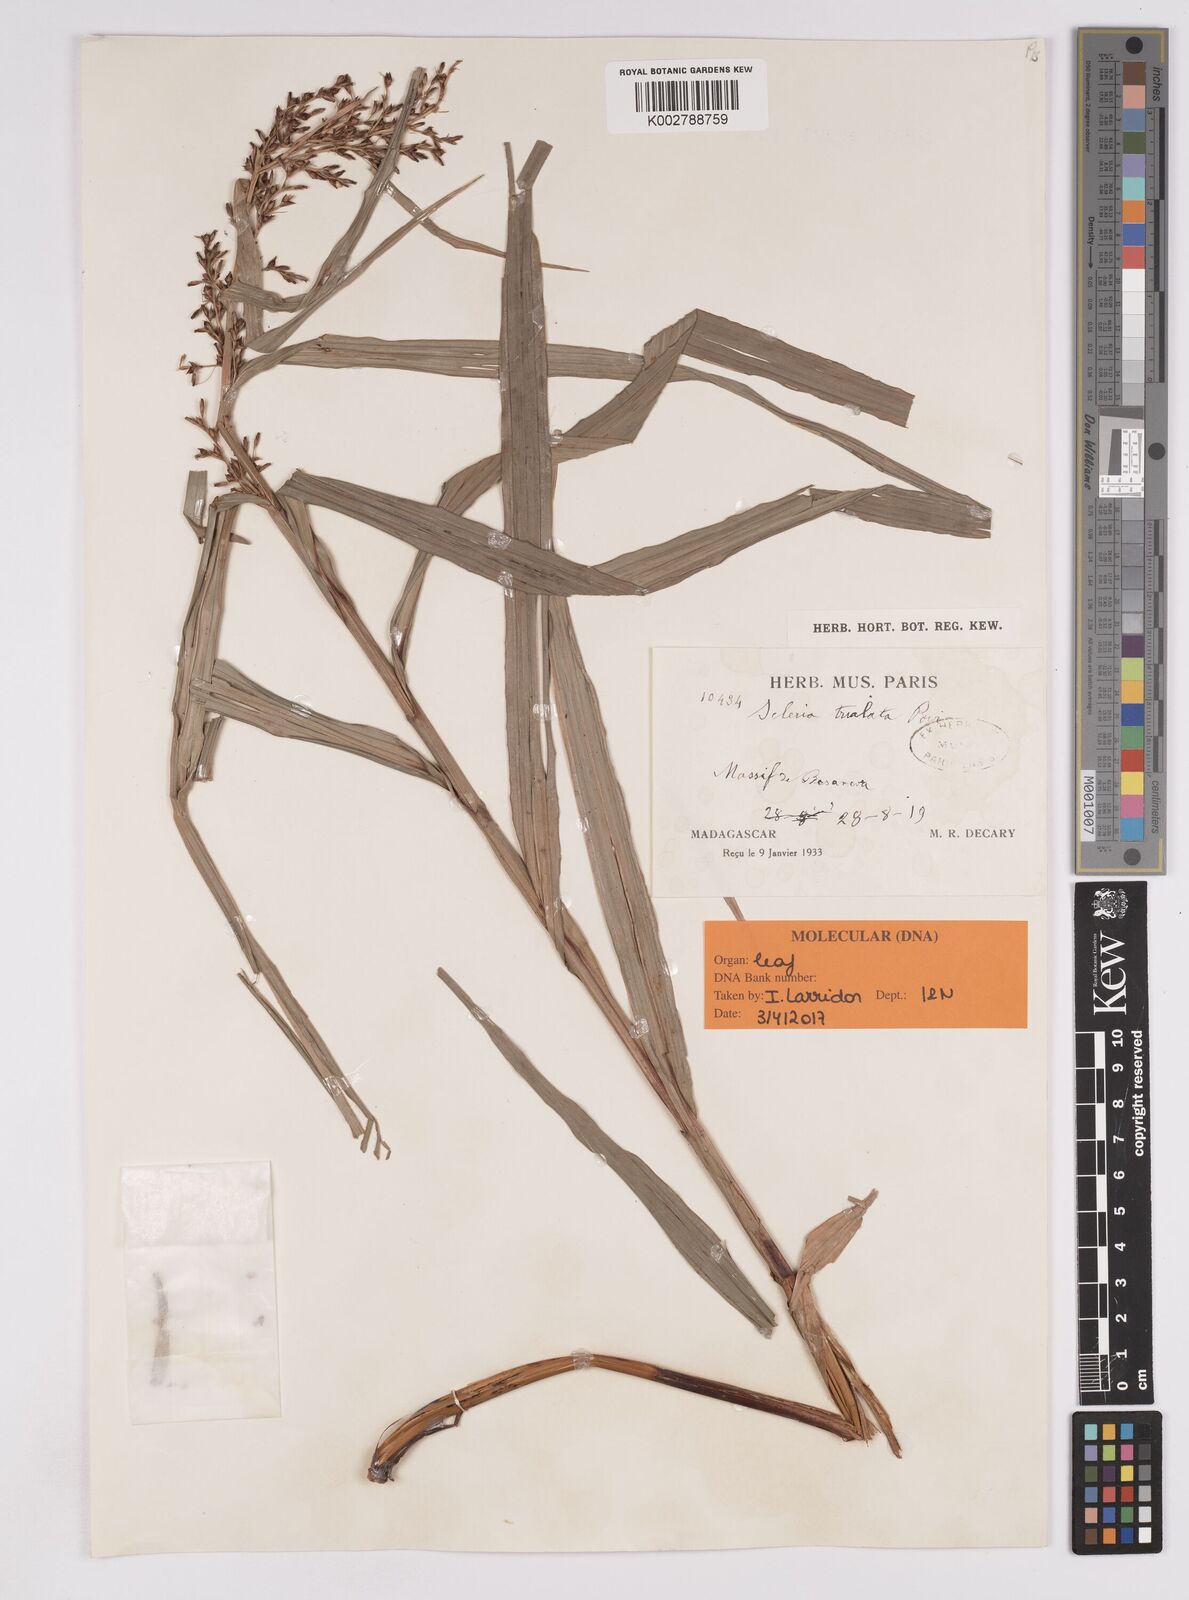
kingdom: Plantae
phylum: Tracheophyta
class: Liliopsida
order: Poales
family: Cyperaceae
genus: Scleria
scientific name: Scleria trialata
